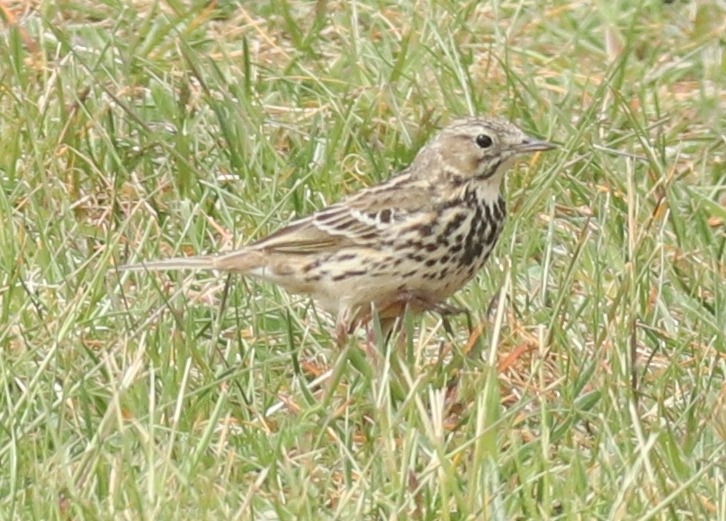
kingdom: Animalia
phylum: Chordata
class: Aves
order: Passeriformes
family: Motacillidae
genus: Anthus
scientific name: Anthus pratensis
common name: Engpiber
